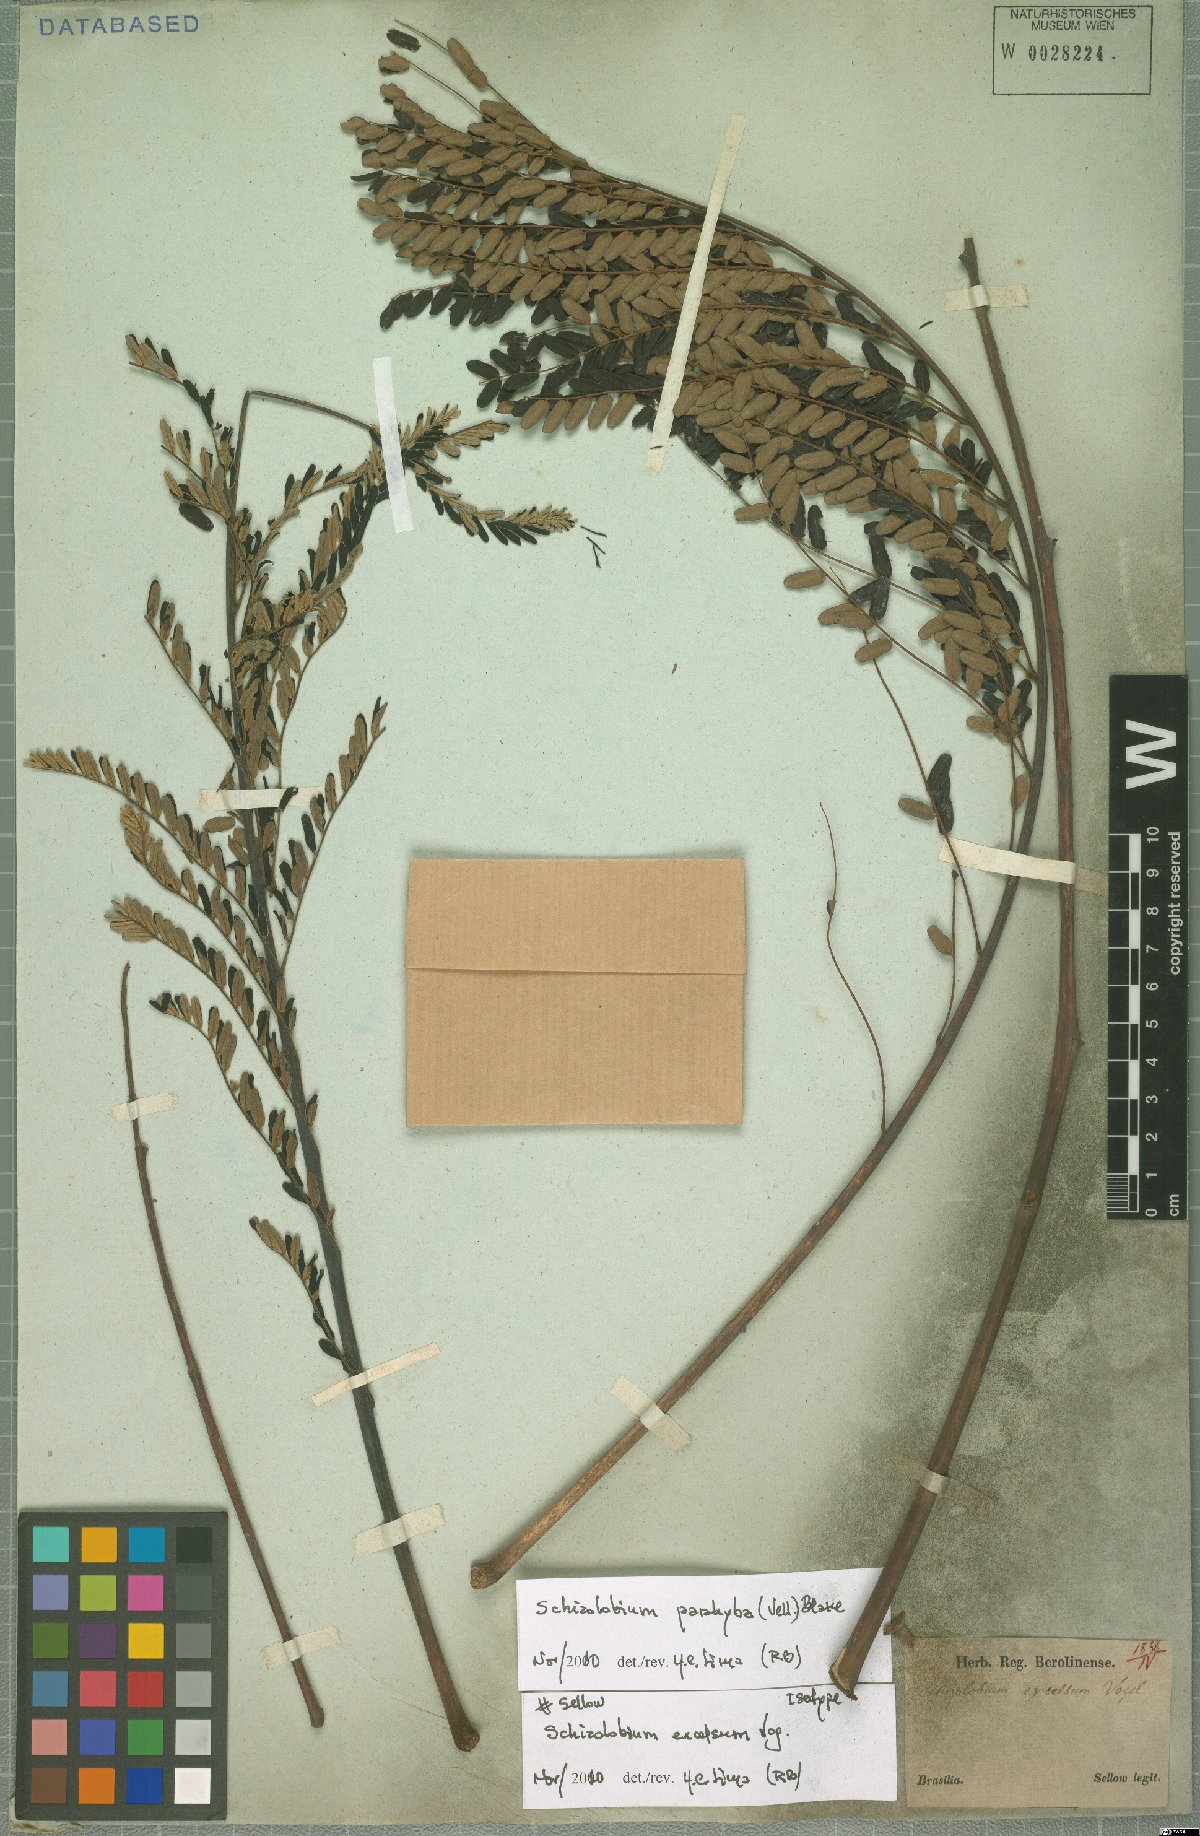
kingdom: Plantae
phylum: Tracheophyta
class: Magnoliopsida
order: Fabales
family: Fabaceae
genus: Schizolobium
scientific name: Schizolobium parahyba
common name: Brazilian firetree
